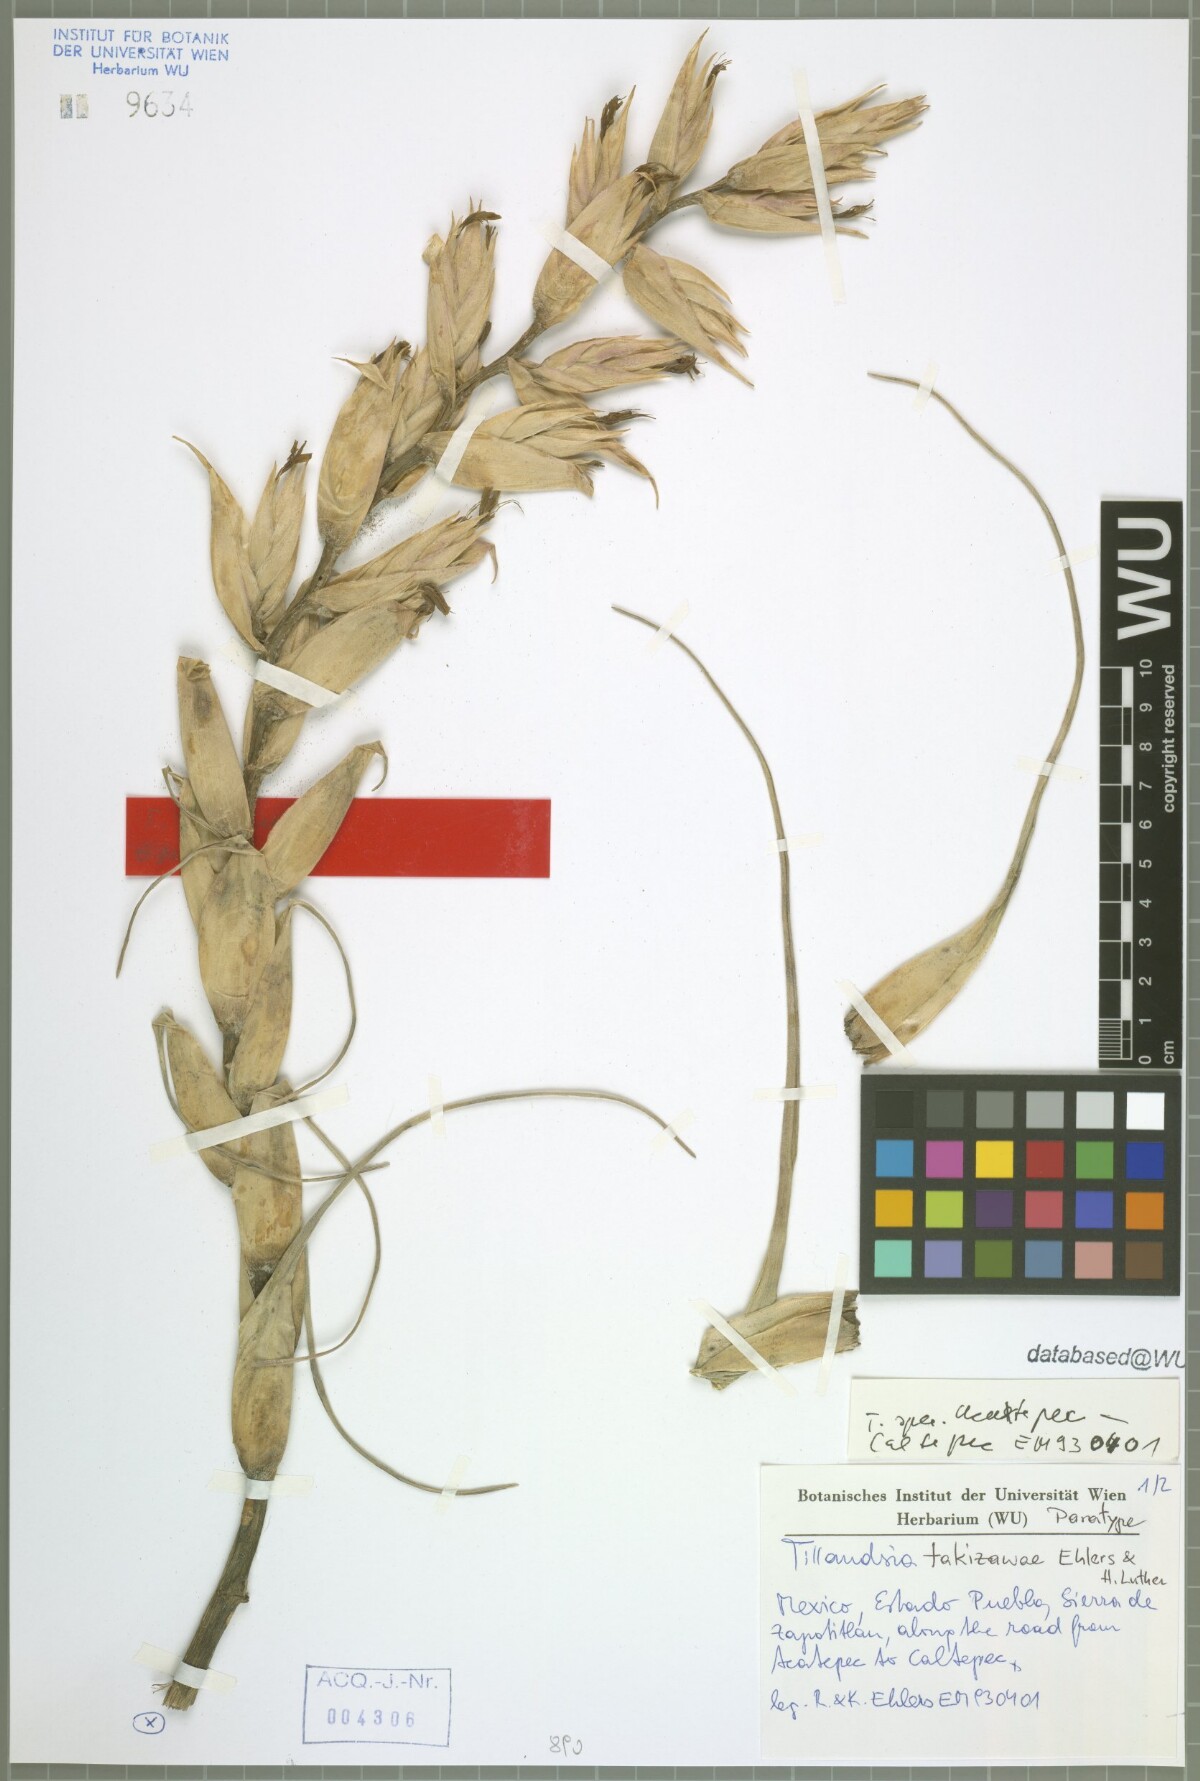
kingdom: Plantae
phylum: Tracheophyta
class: Liliopsida
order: Poales
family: Bromeliaceae
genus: Tillandsia
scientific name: Tillandsia takizawae
